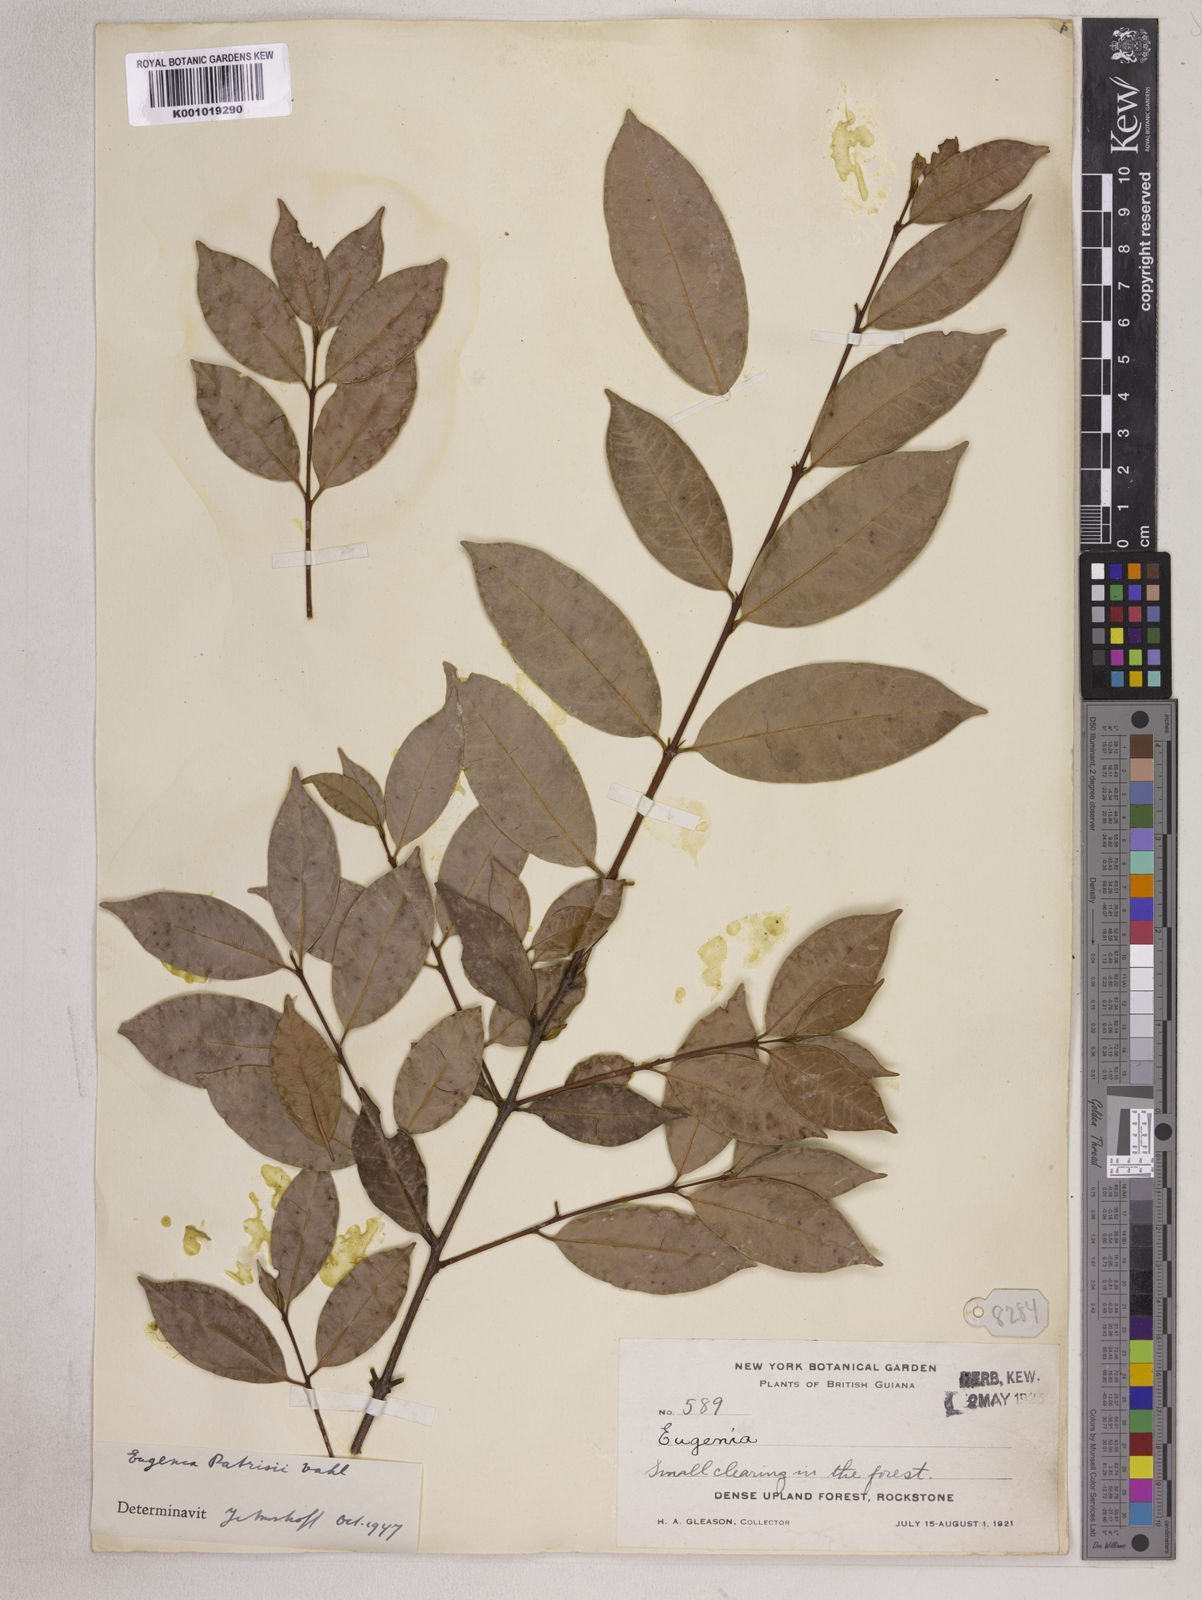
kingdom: Plantae
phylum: Tracheophyta
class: Magnoliopsida
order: Myrtales
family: Myrtaceae
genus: Eugenia
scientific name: Eugenia patrisii
